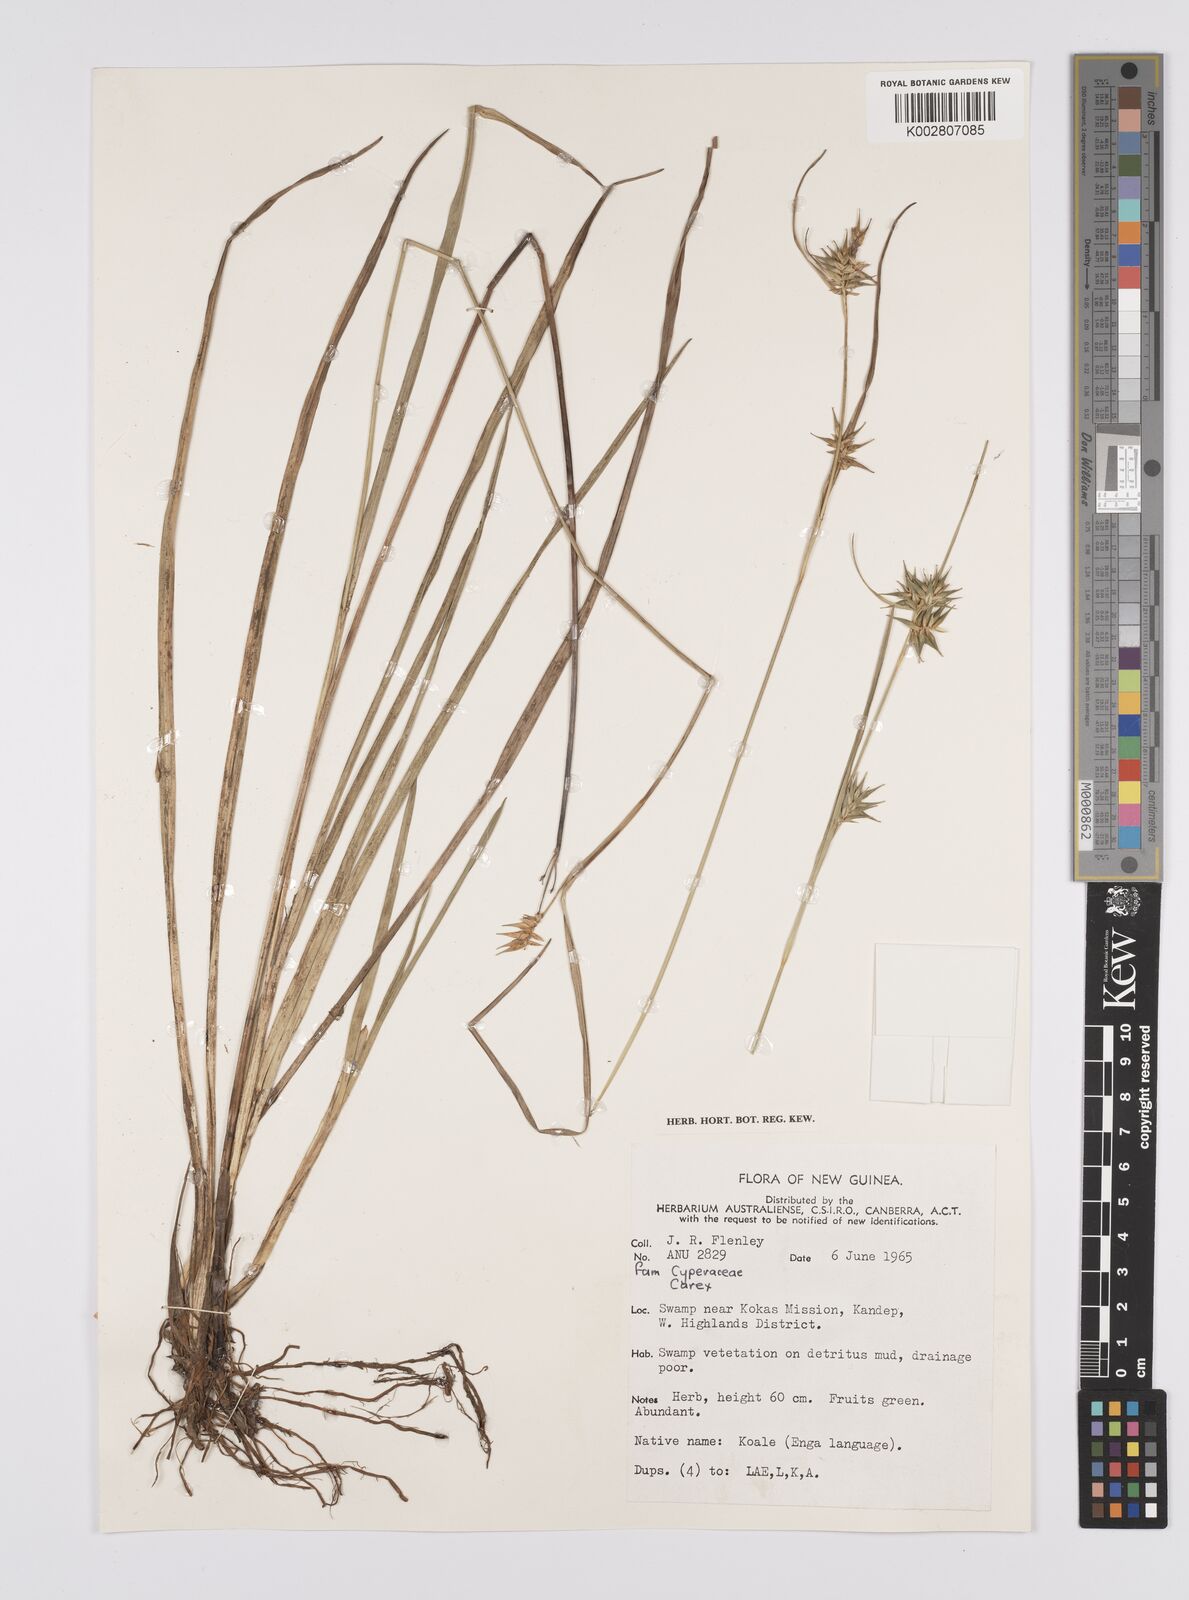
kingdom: Plantae
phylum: Tracheophyta
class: Liliopsida
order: Poales
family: Cyperaceae
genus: Carex
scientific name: Carex michauxiana
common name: Michaux's sedge
